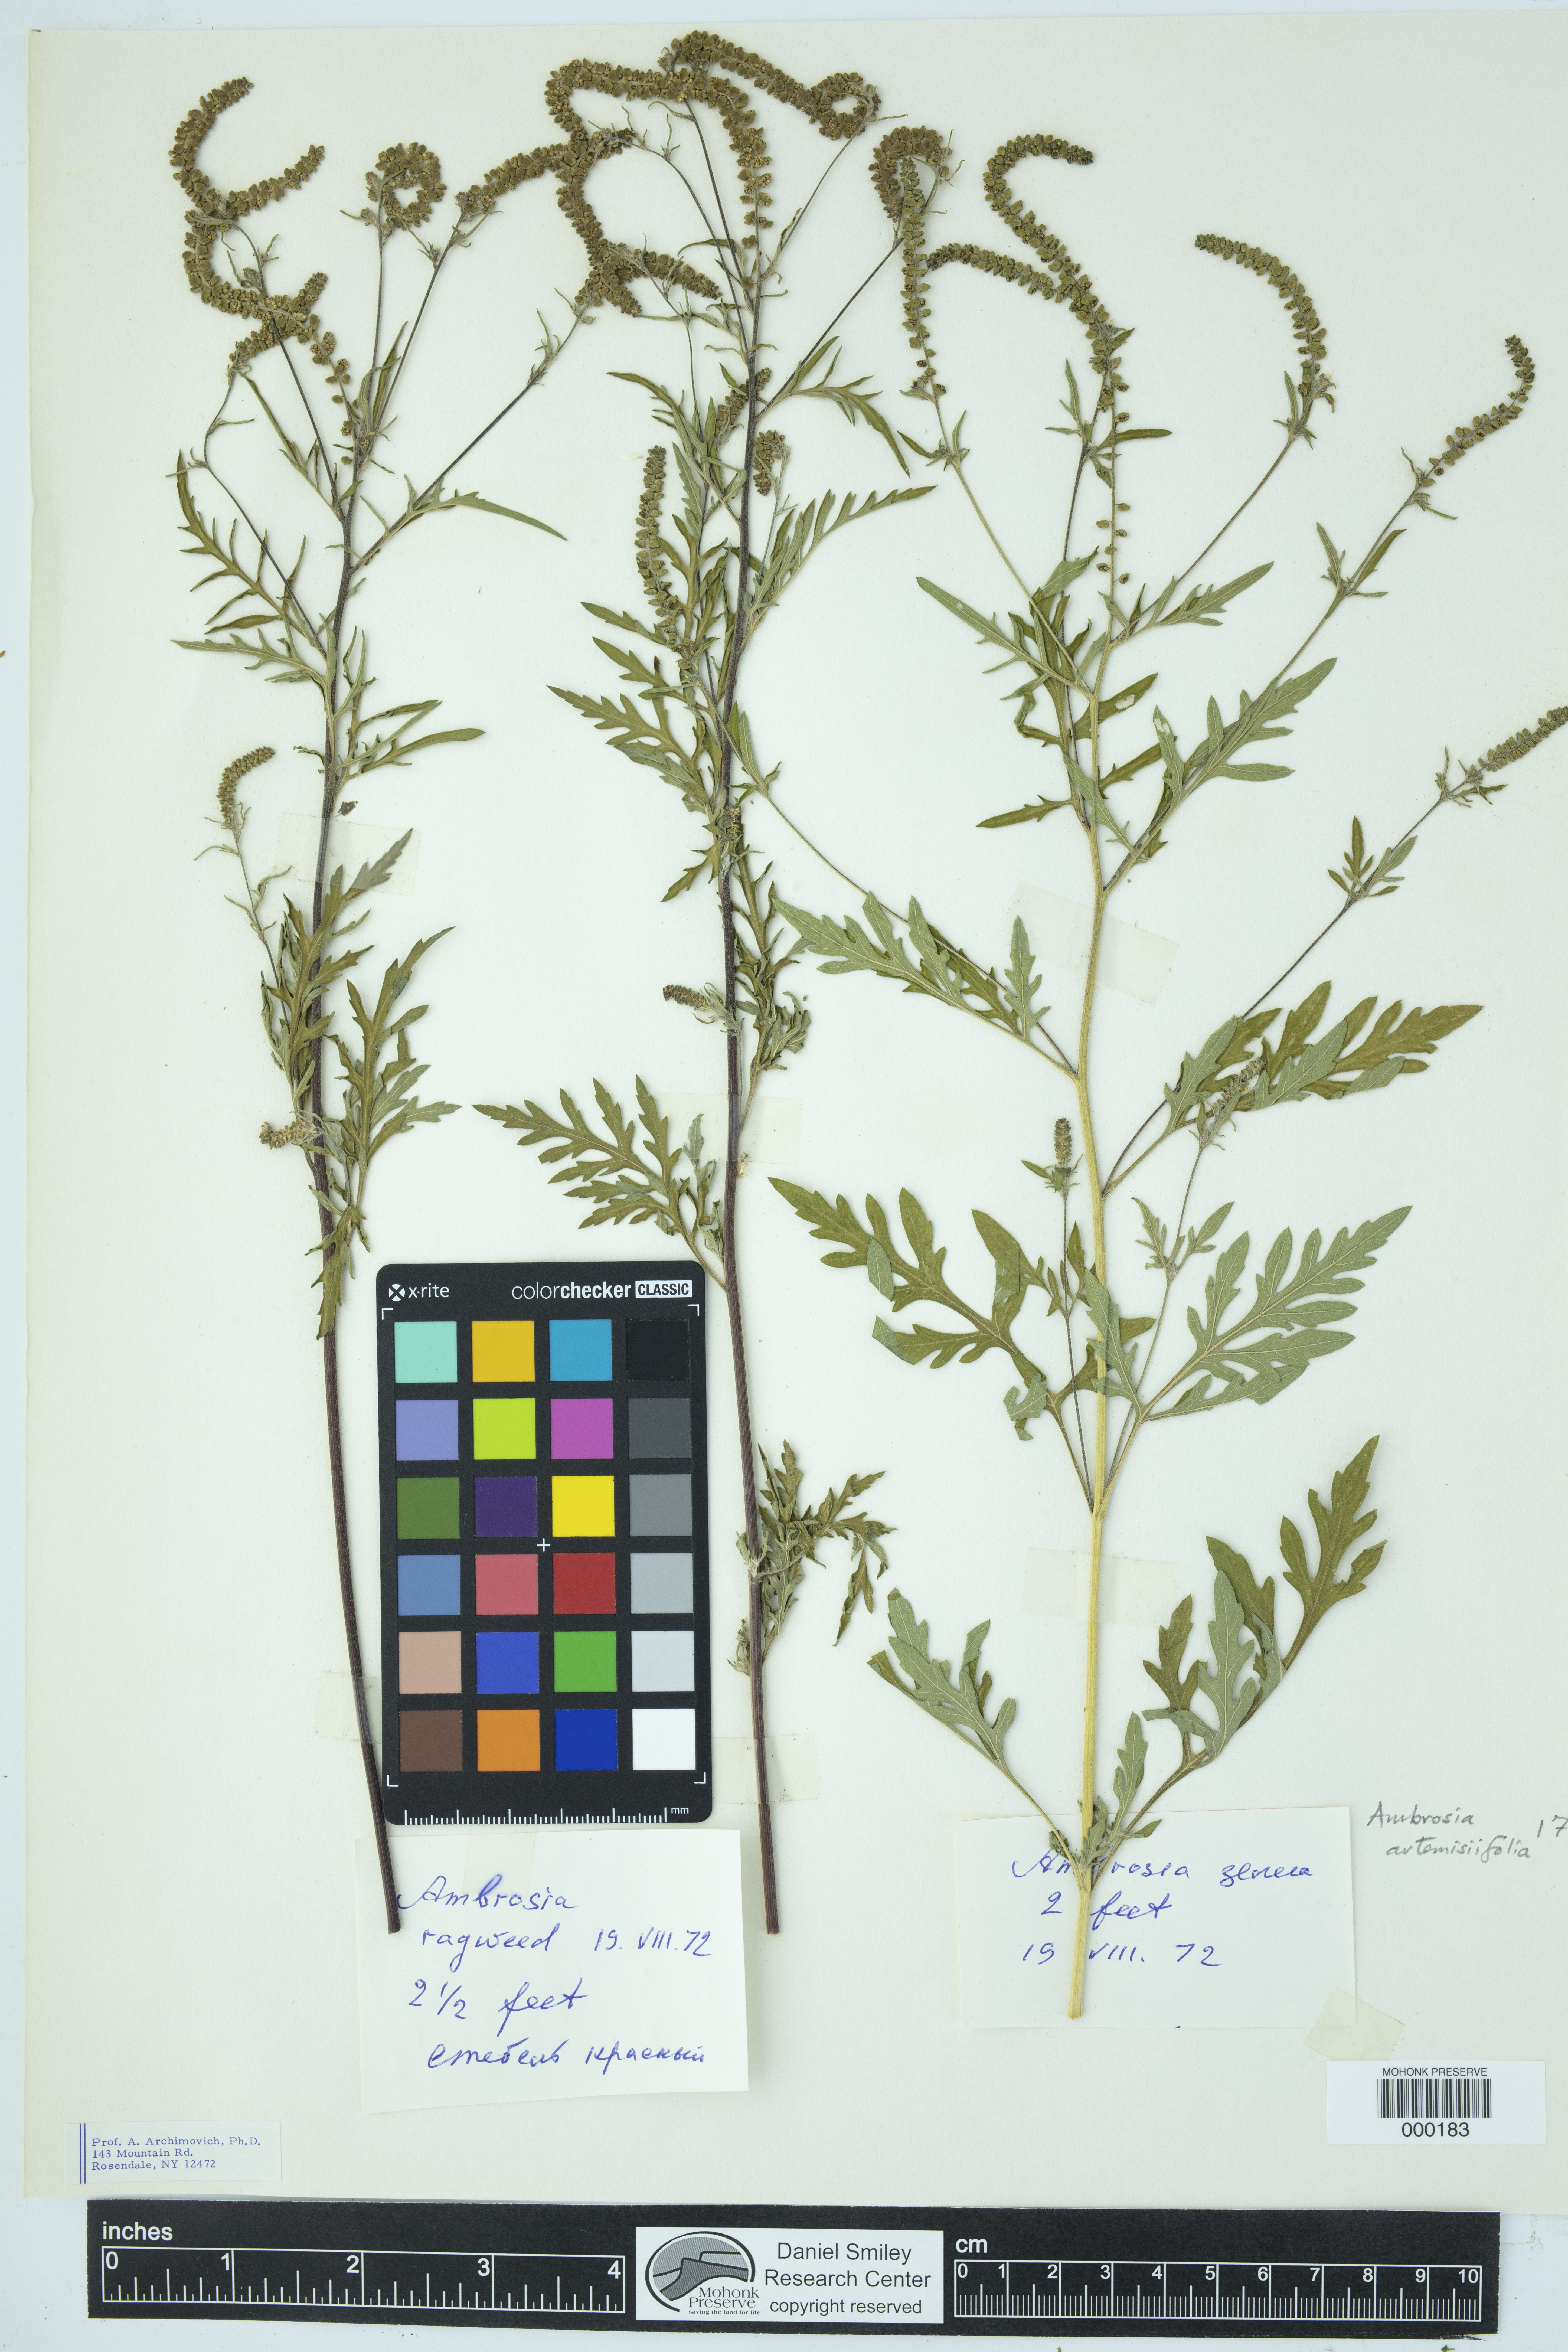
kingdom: Plantae
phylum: Tracheophyta
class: Magnoliopsida
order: Asterales
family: Asteraceae
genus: Ambrosia
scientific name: Ambrosia artemisiifolia
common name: Annual ragweed
